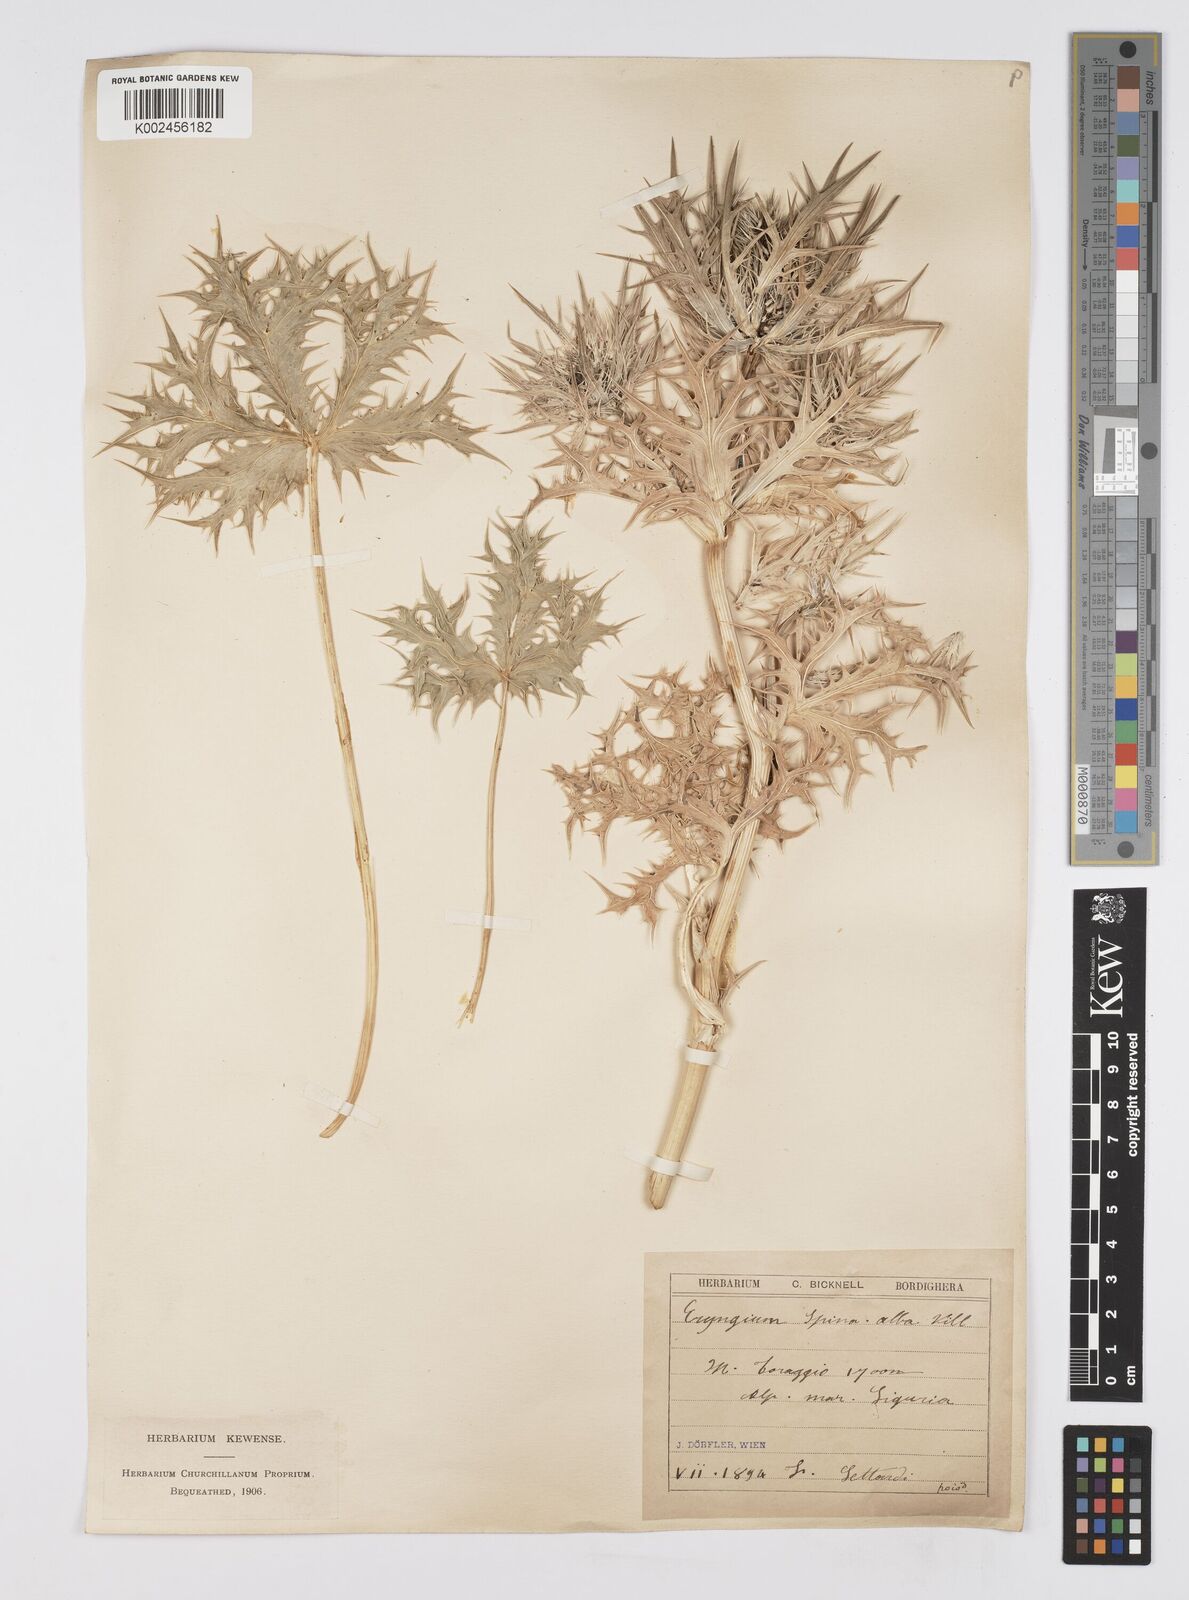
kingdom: Plantae
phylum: Tracheophyta
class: Magnoliopsida
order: Apiales
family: Apiaceae
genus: Eryngium
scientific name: Eryngium spinalba
